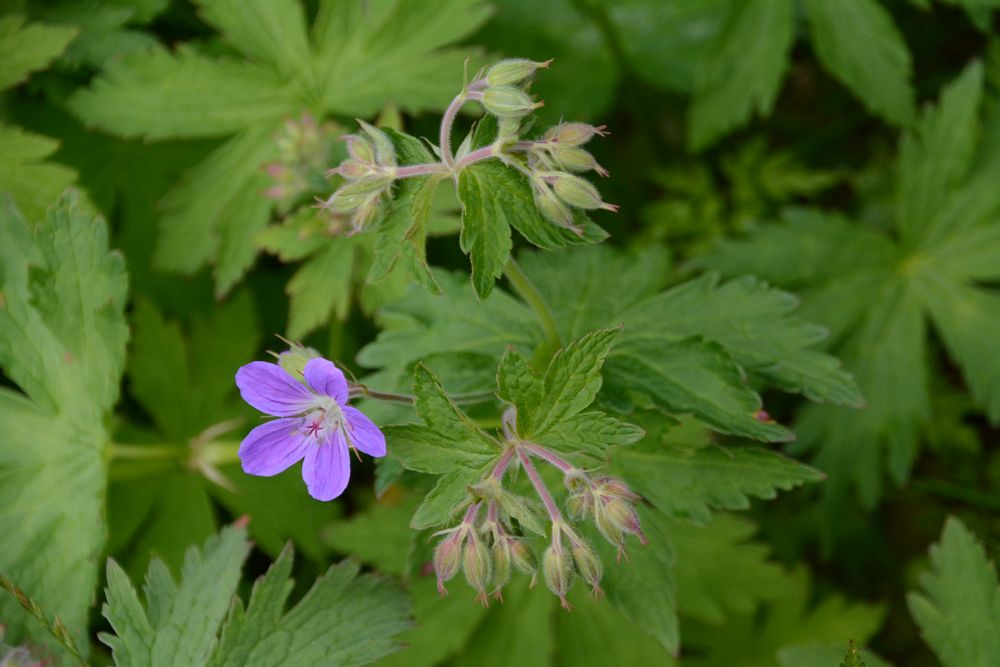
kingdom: Plantae
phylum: Tracheophyta
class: Magnoliopsida
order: Geraniales
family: Geraniaceae
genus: Geranium
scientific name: Geranium sylvaticum
